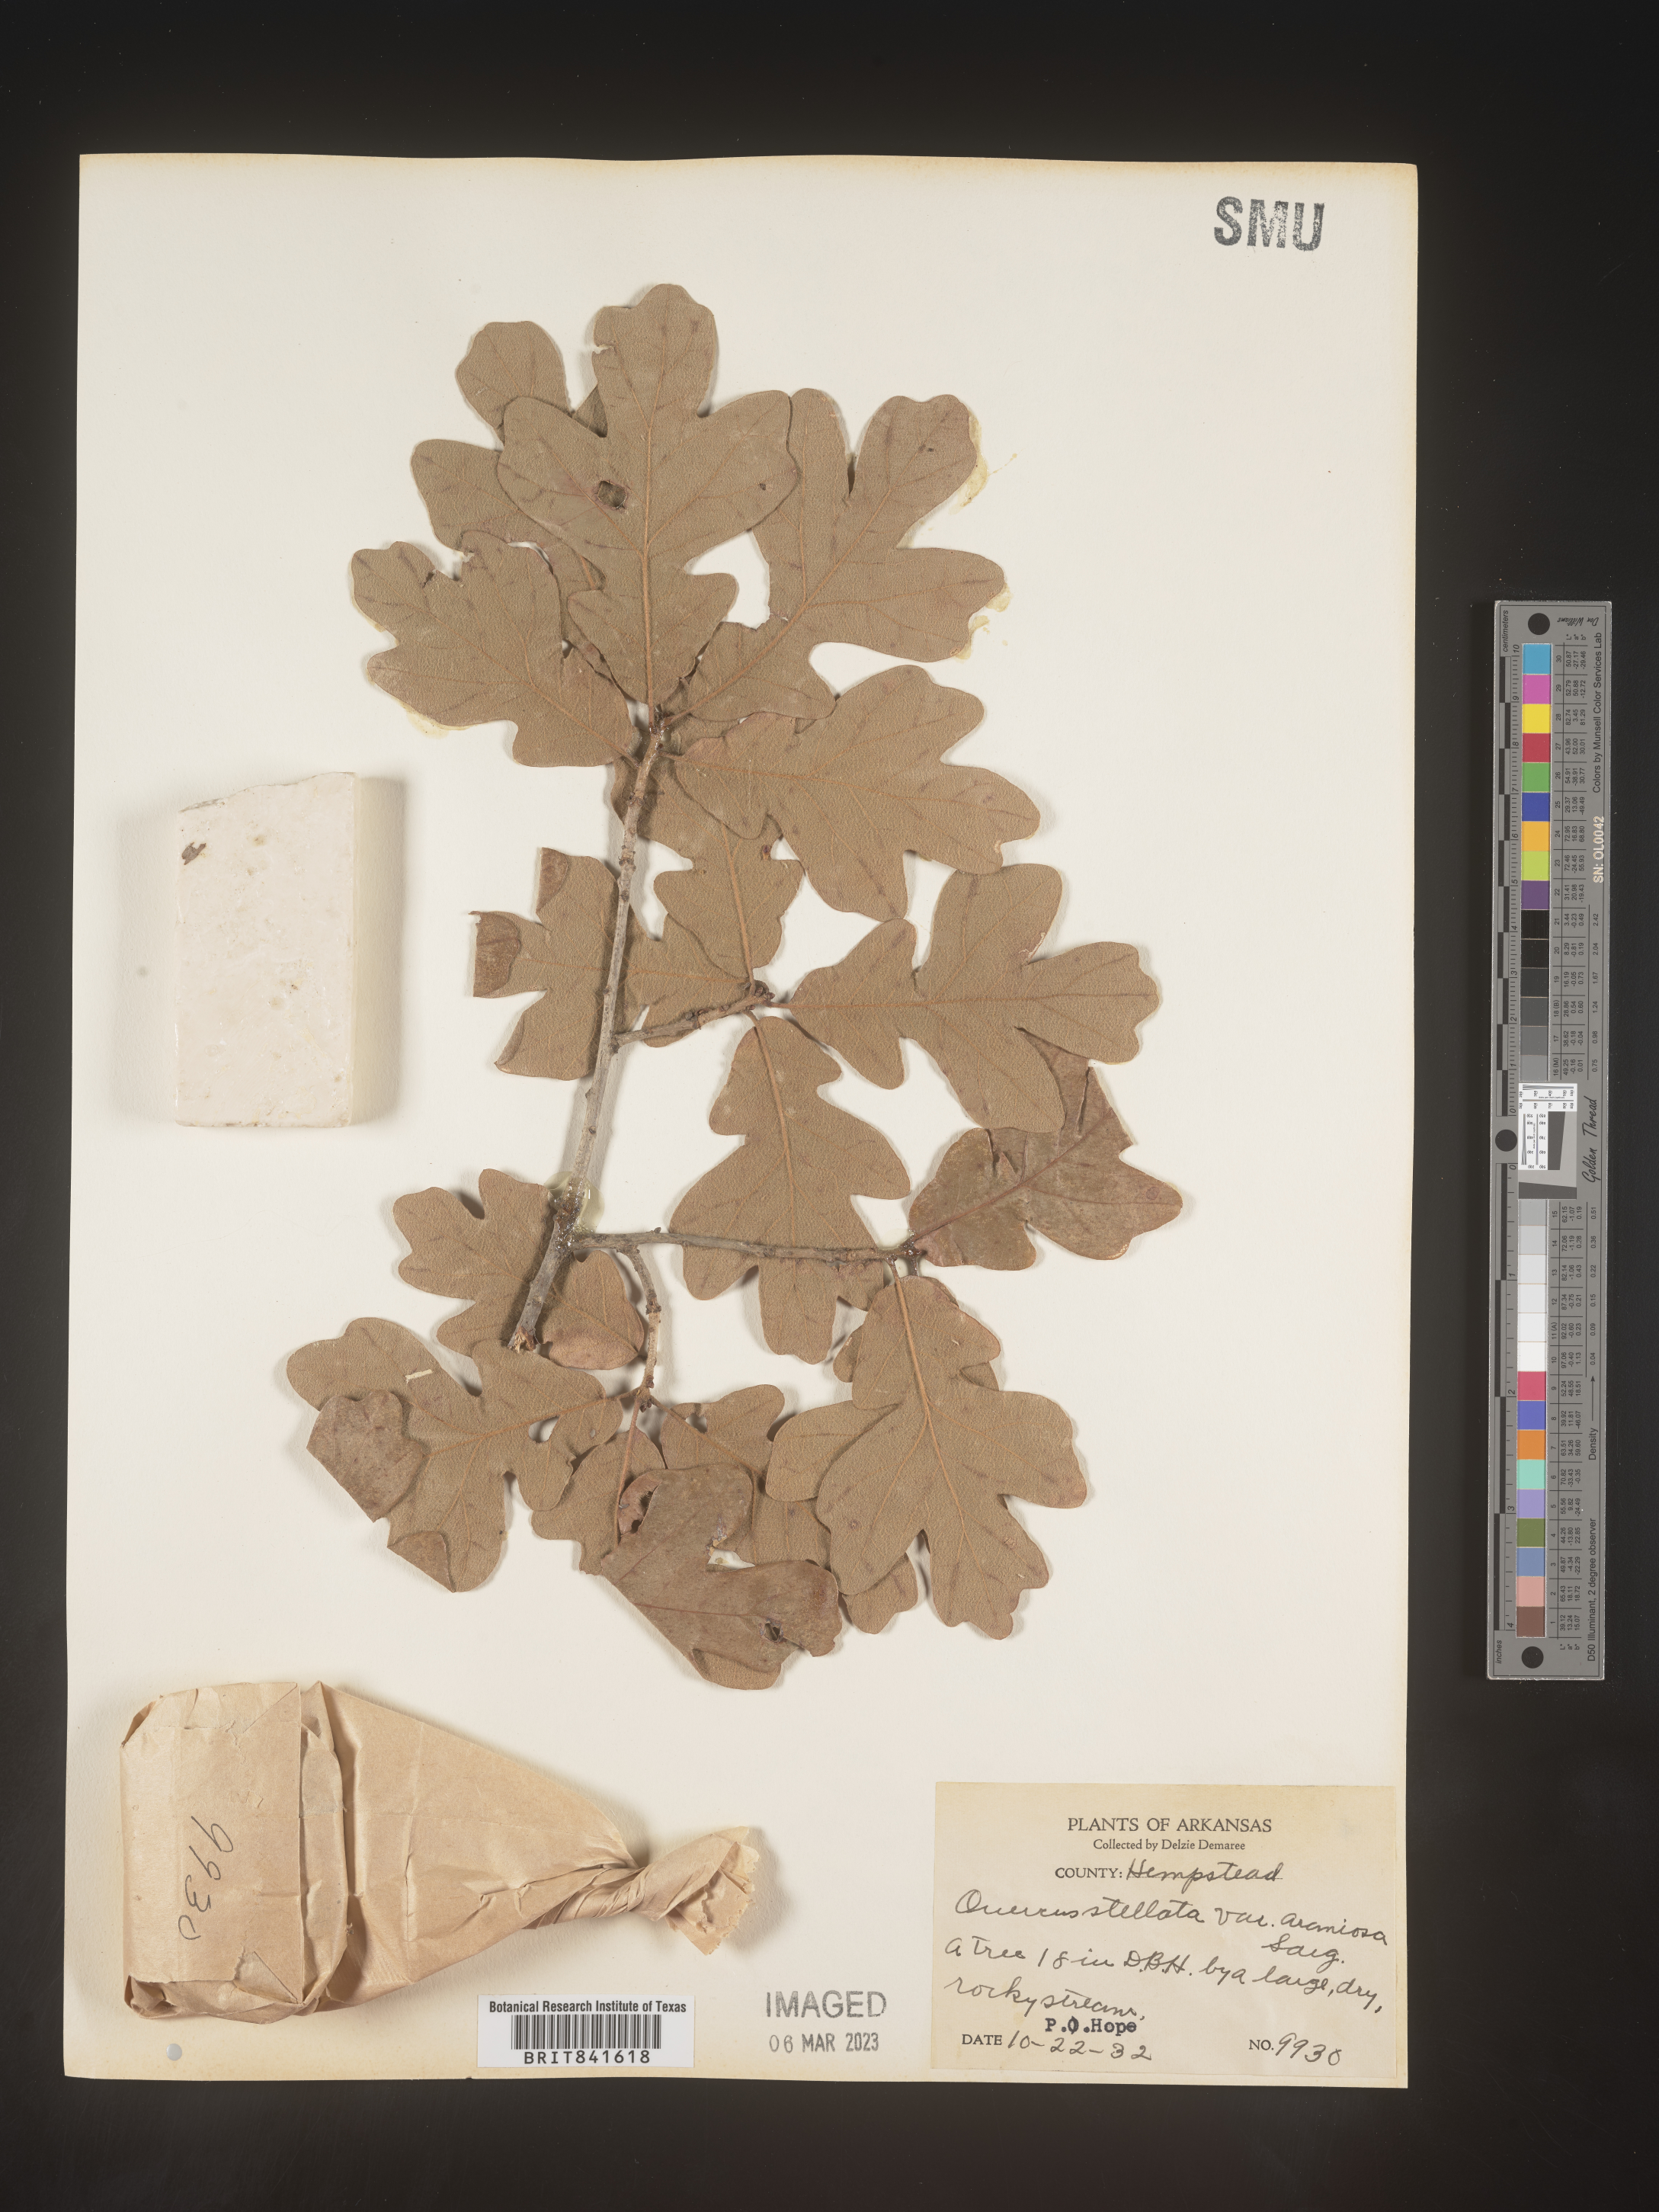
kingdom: Plantae
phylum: Tracheophyta
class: Magnoliopsida
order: Fagales
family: Fagaceae
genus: Quercus
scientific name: Quercus stellata
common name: Post oak
